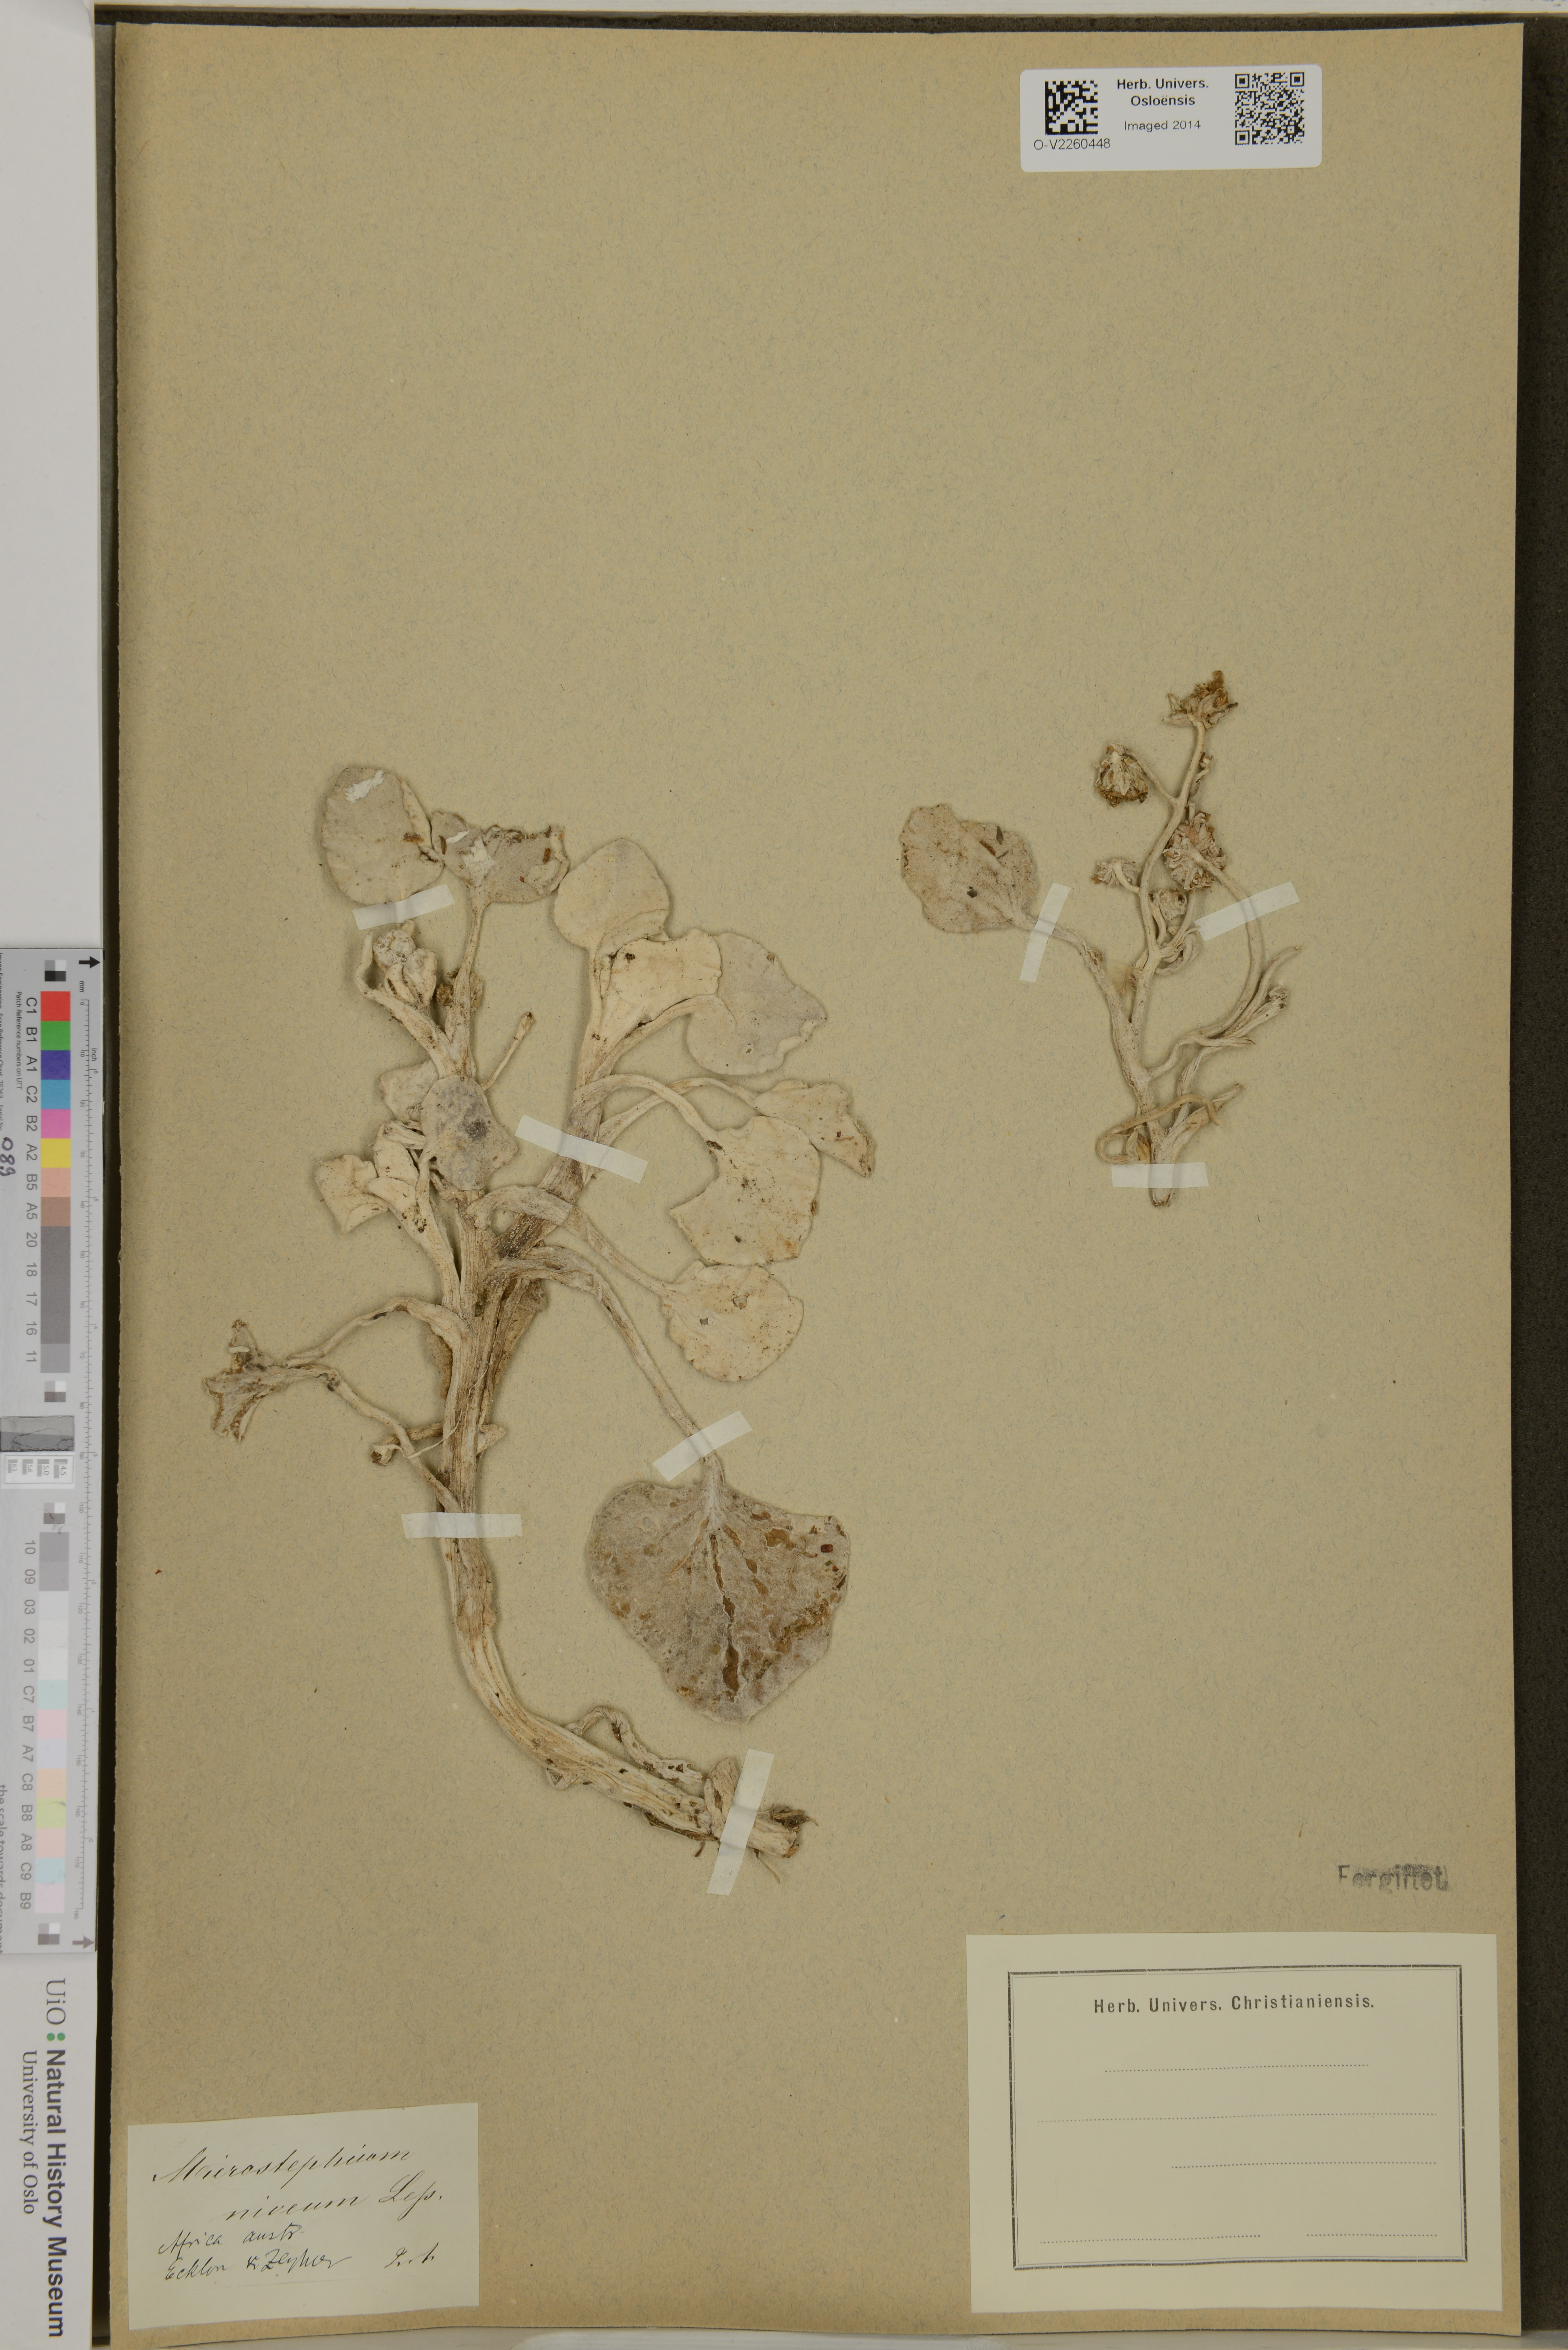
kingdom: Plantae
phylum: Tracheophyta
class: Magnoliopsida
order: Asterales
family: Asteraceae
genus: Arctotheca
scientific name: Arctotheca populifolia
